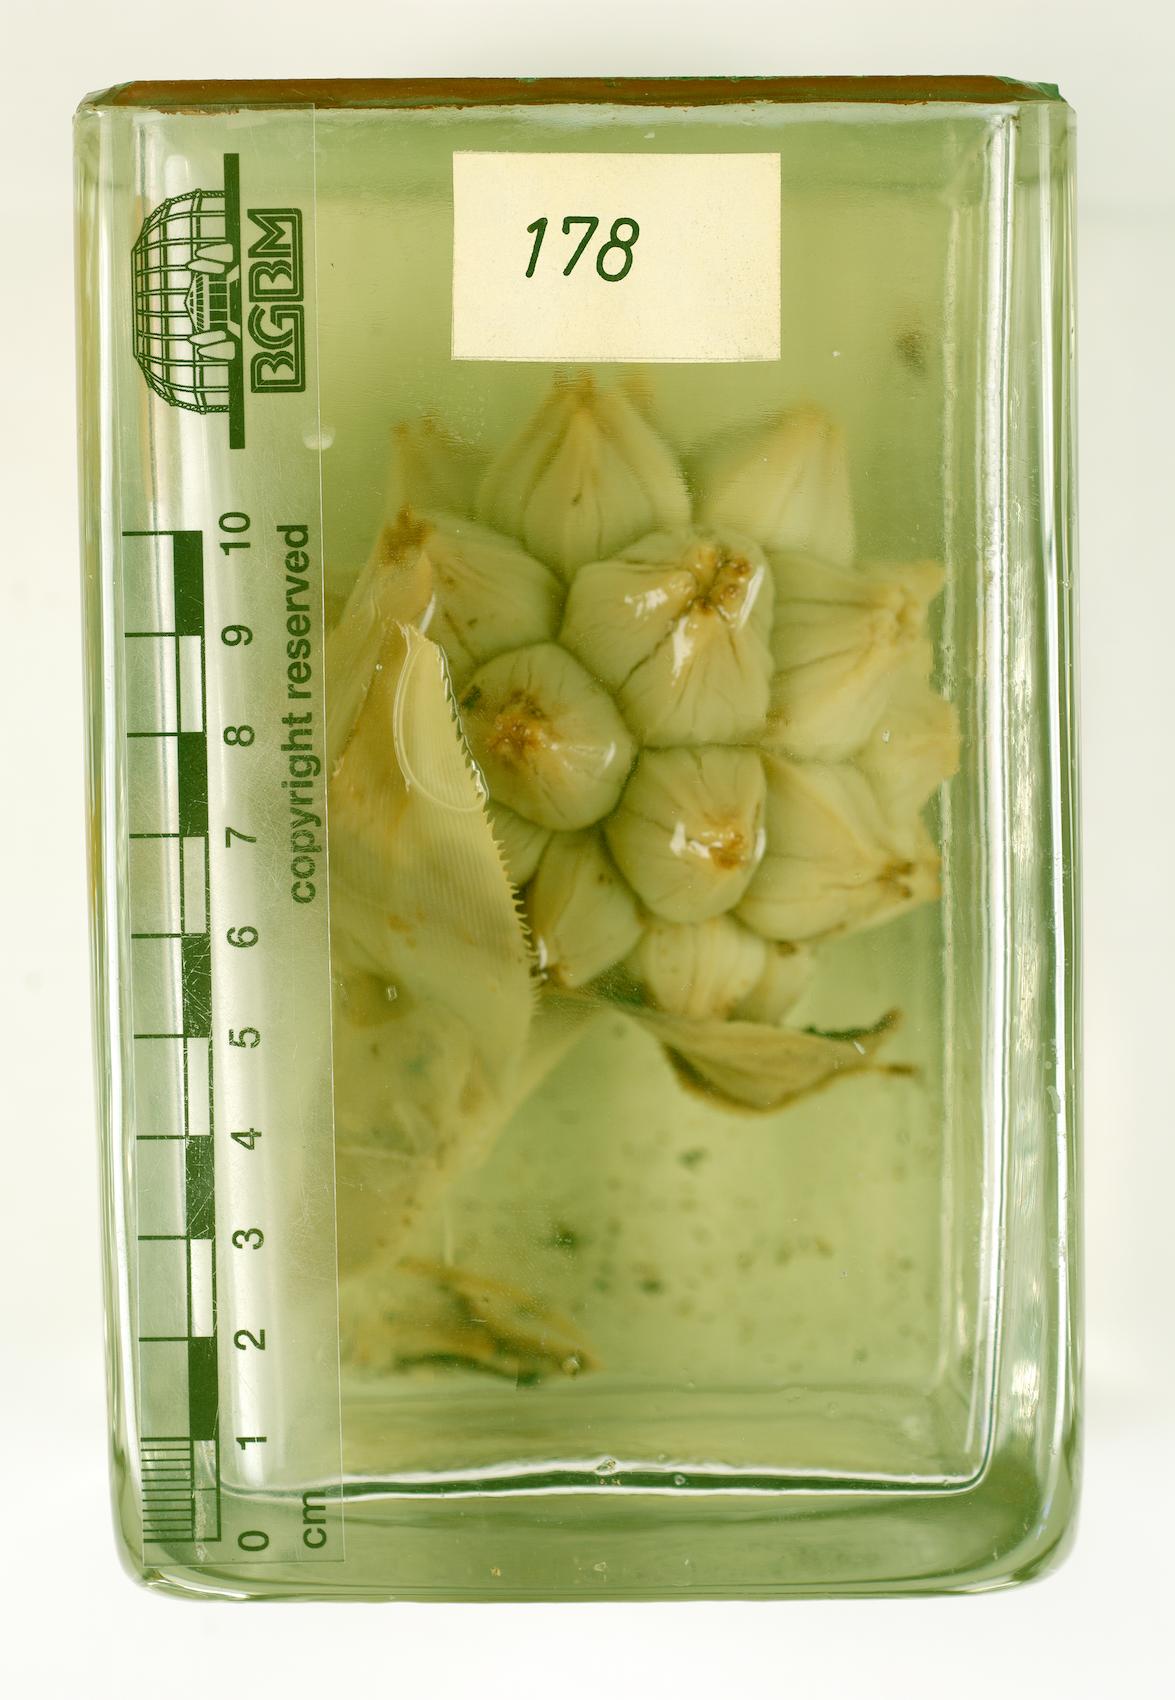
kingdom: Plantae
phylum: Tracheophyta
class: Liliopsida
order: Pandanales
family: Pandanaceae
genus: Pandanus
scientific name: Pandanus vandamii
